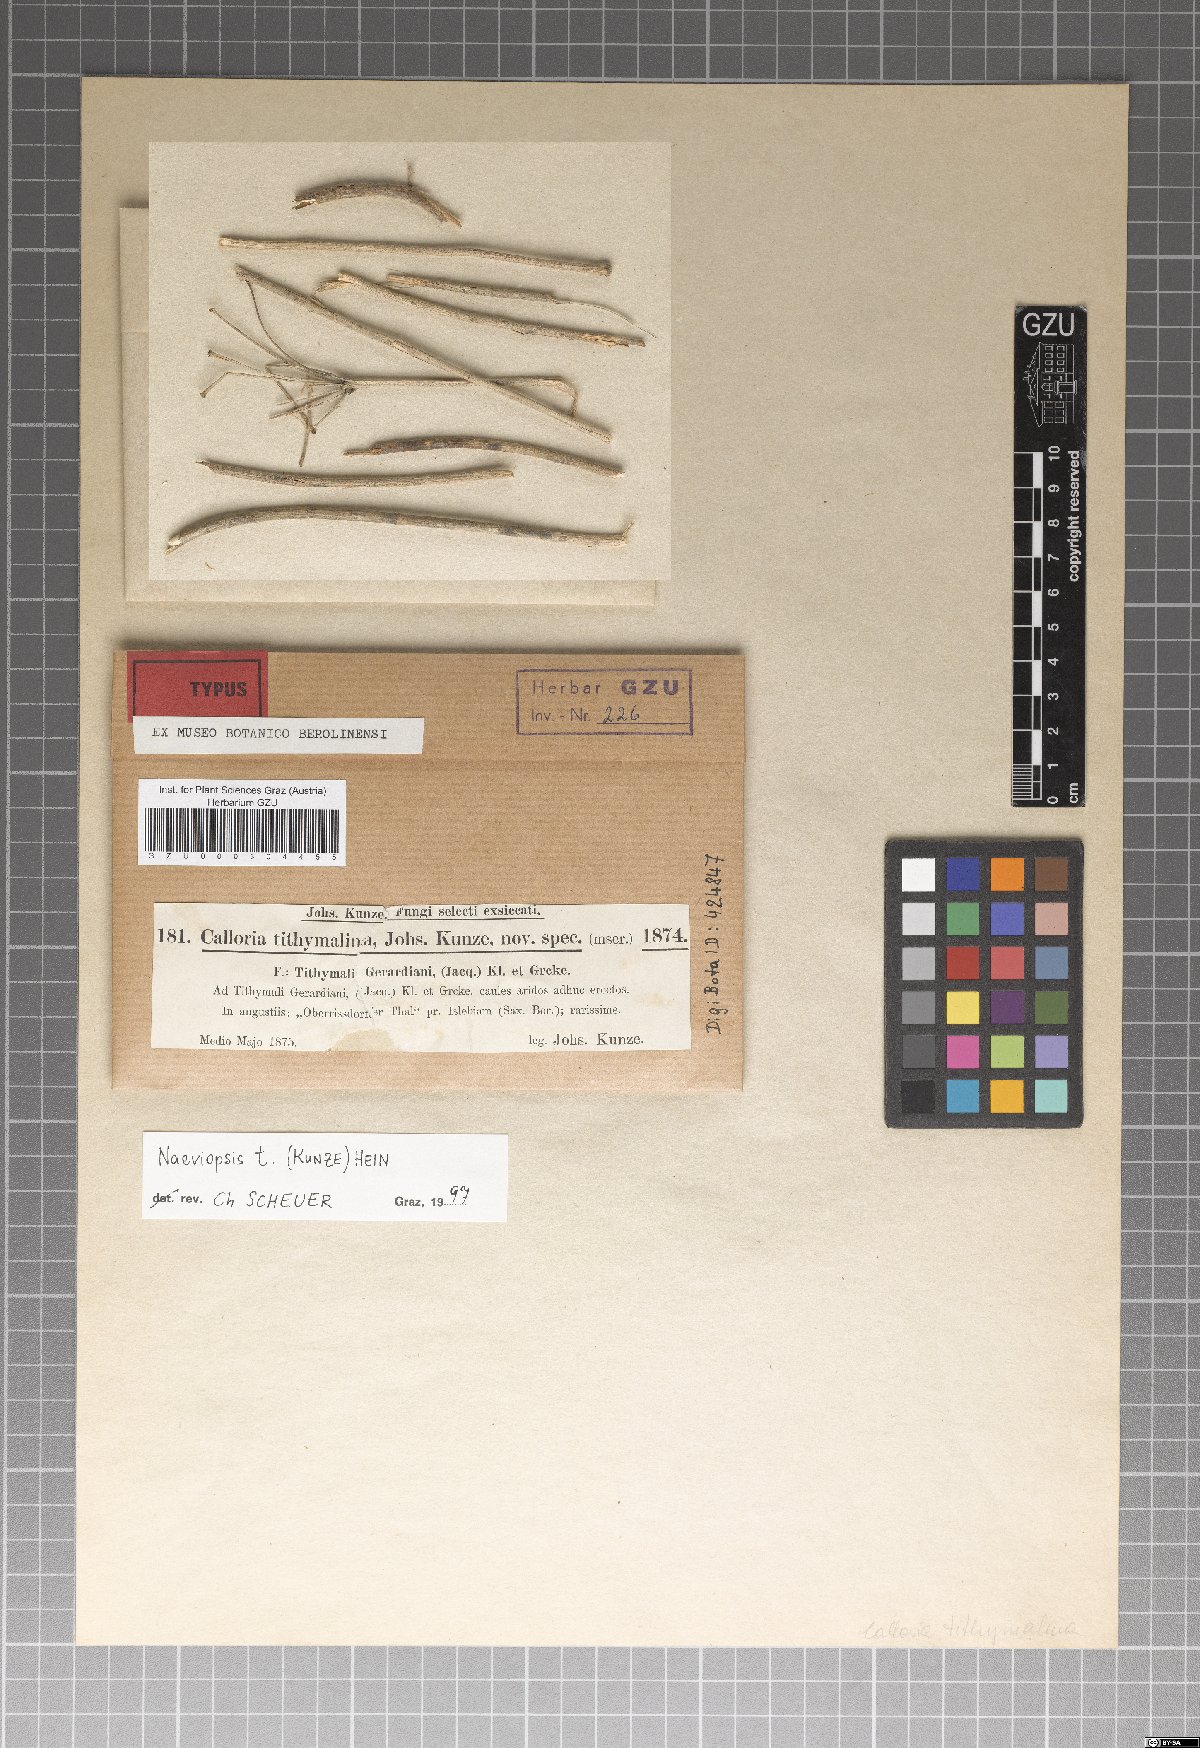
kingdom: Fungi
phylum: Ascomycota
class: Leotiomycetes
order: Helotiales
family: Calloriaceae
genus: Naeviopsis
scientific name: Naeviopsis tithymalina
